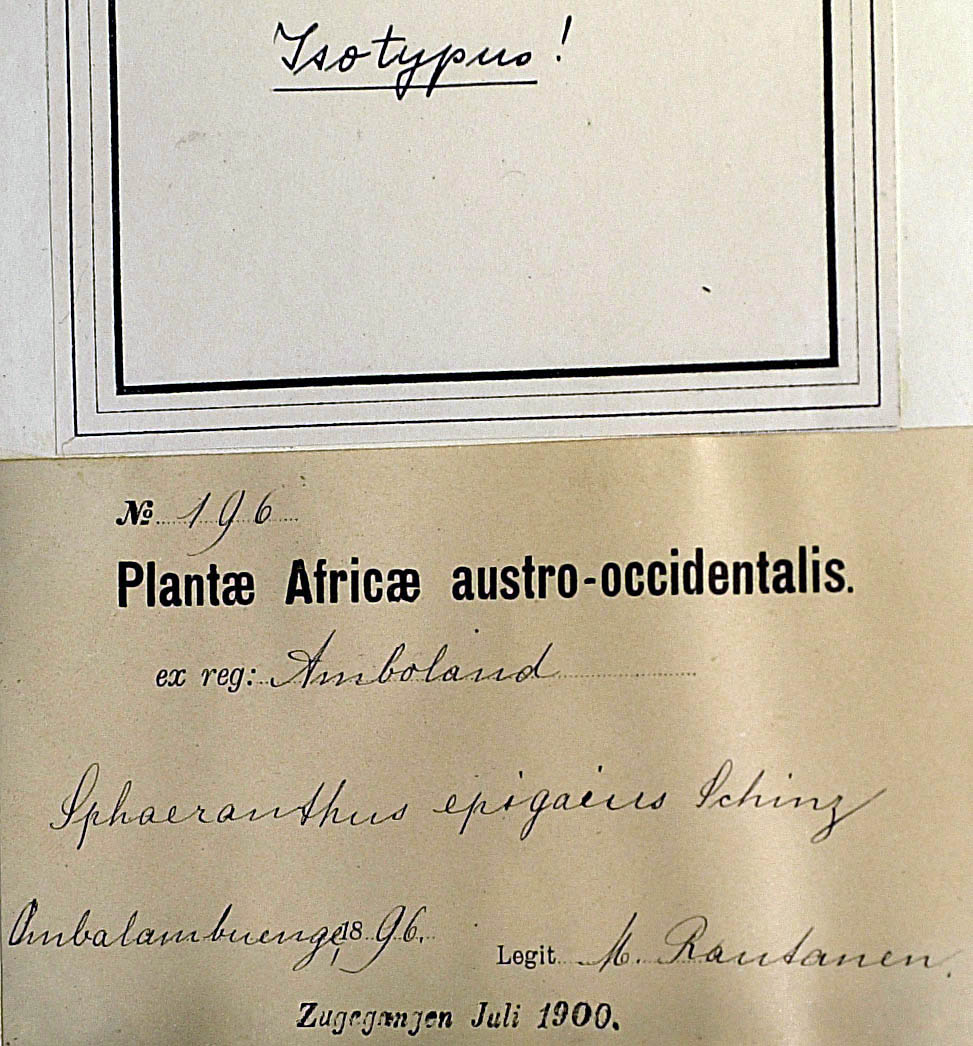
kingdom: Plantae
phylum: Tracheophyta
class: Magnoliopsida
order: Asterales
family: Asteraceae
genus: Sphaeranthus
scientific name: Sphaeranthus epigaeus
